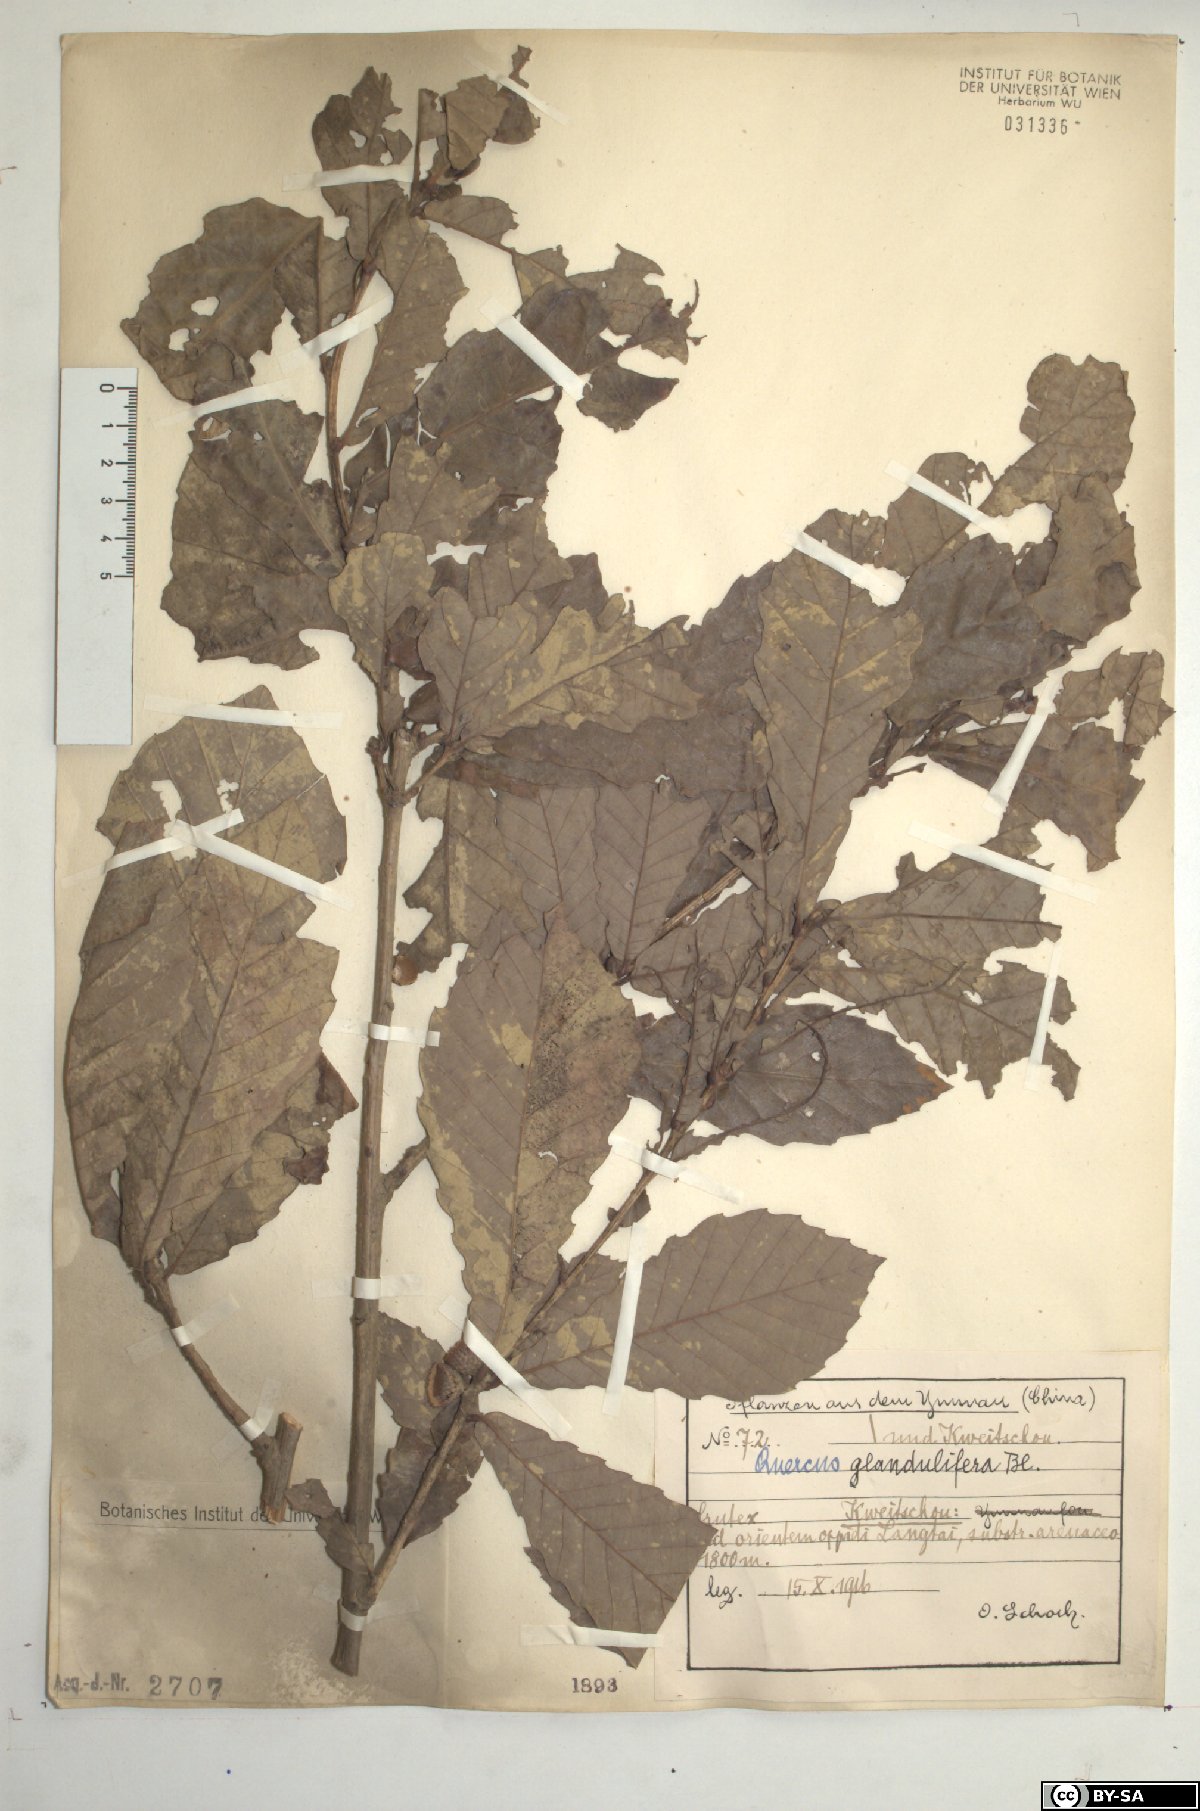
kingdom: Plantae
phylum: Tracheophyta
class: Magnoliopsida
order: Fagales
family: Fagaceae
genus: Quercus
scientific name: Quercus serrata
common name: Bao li
